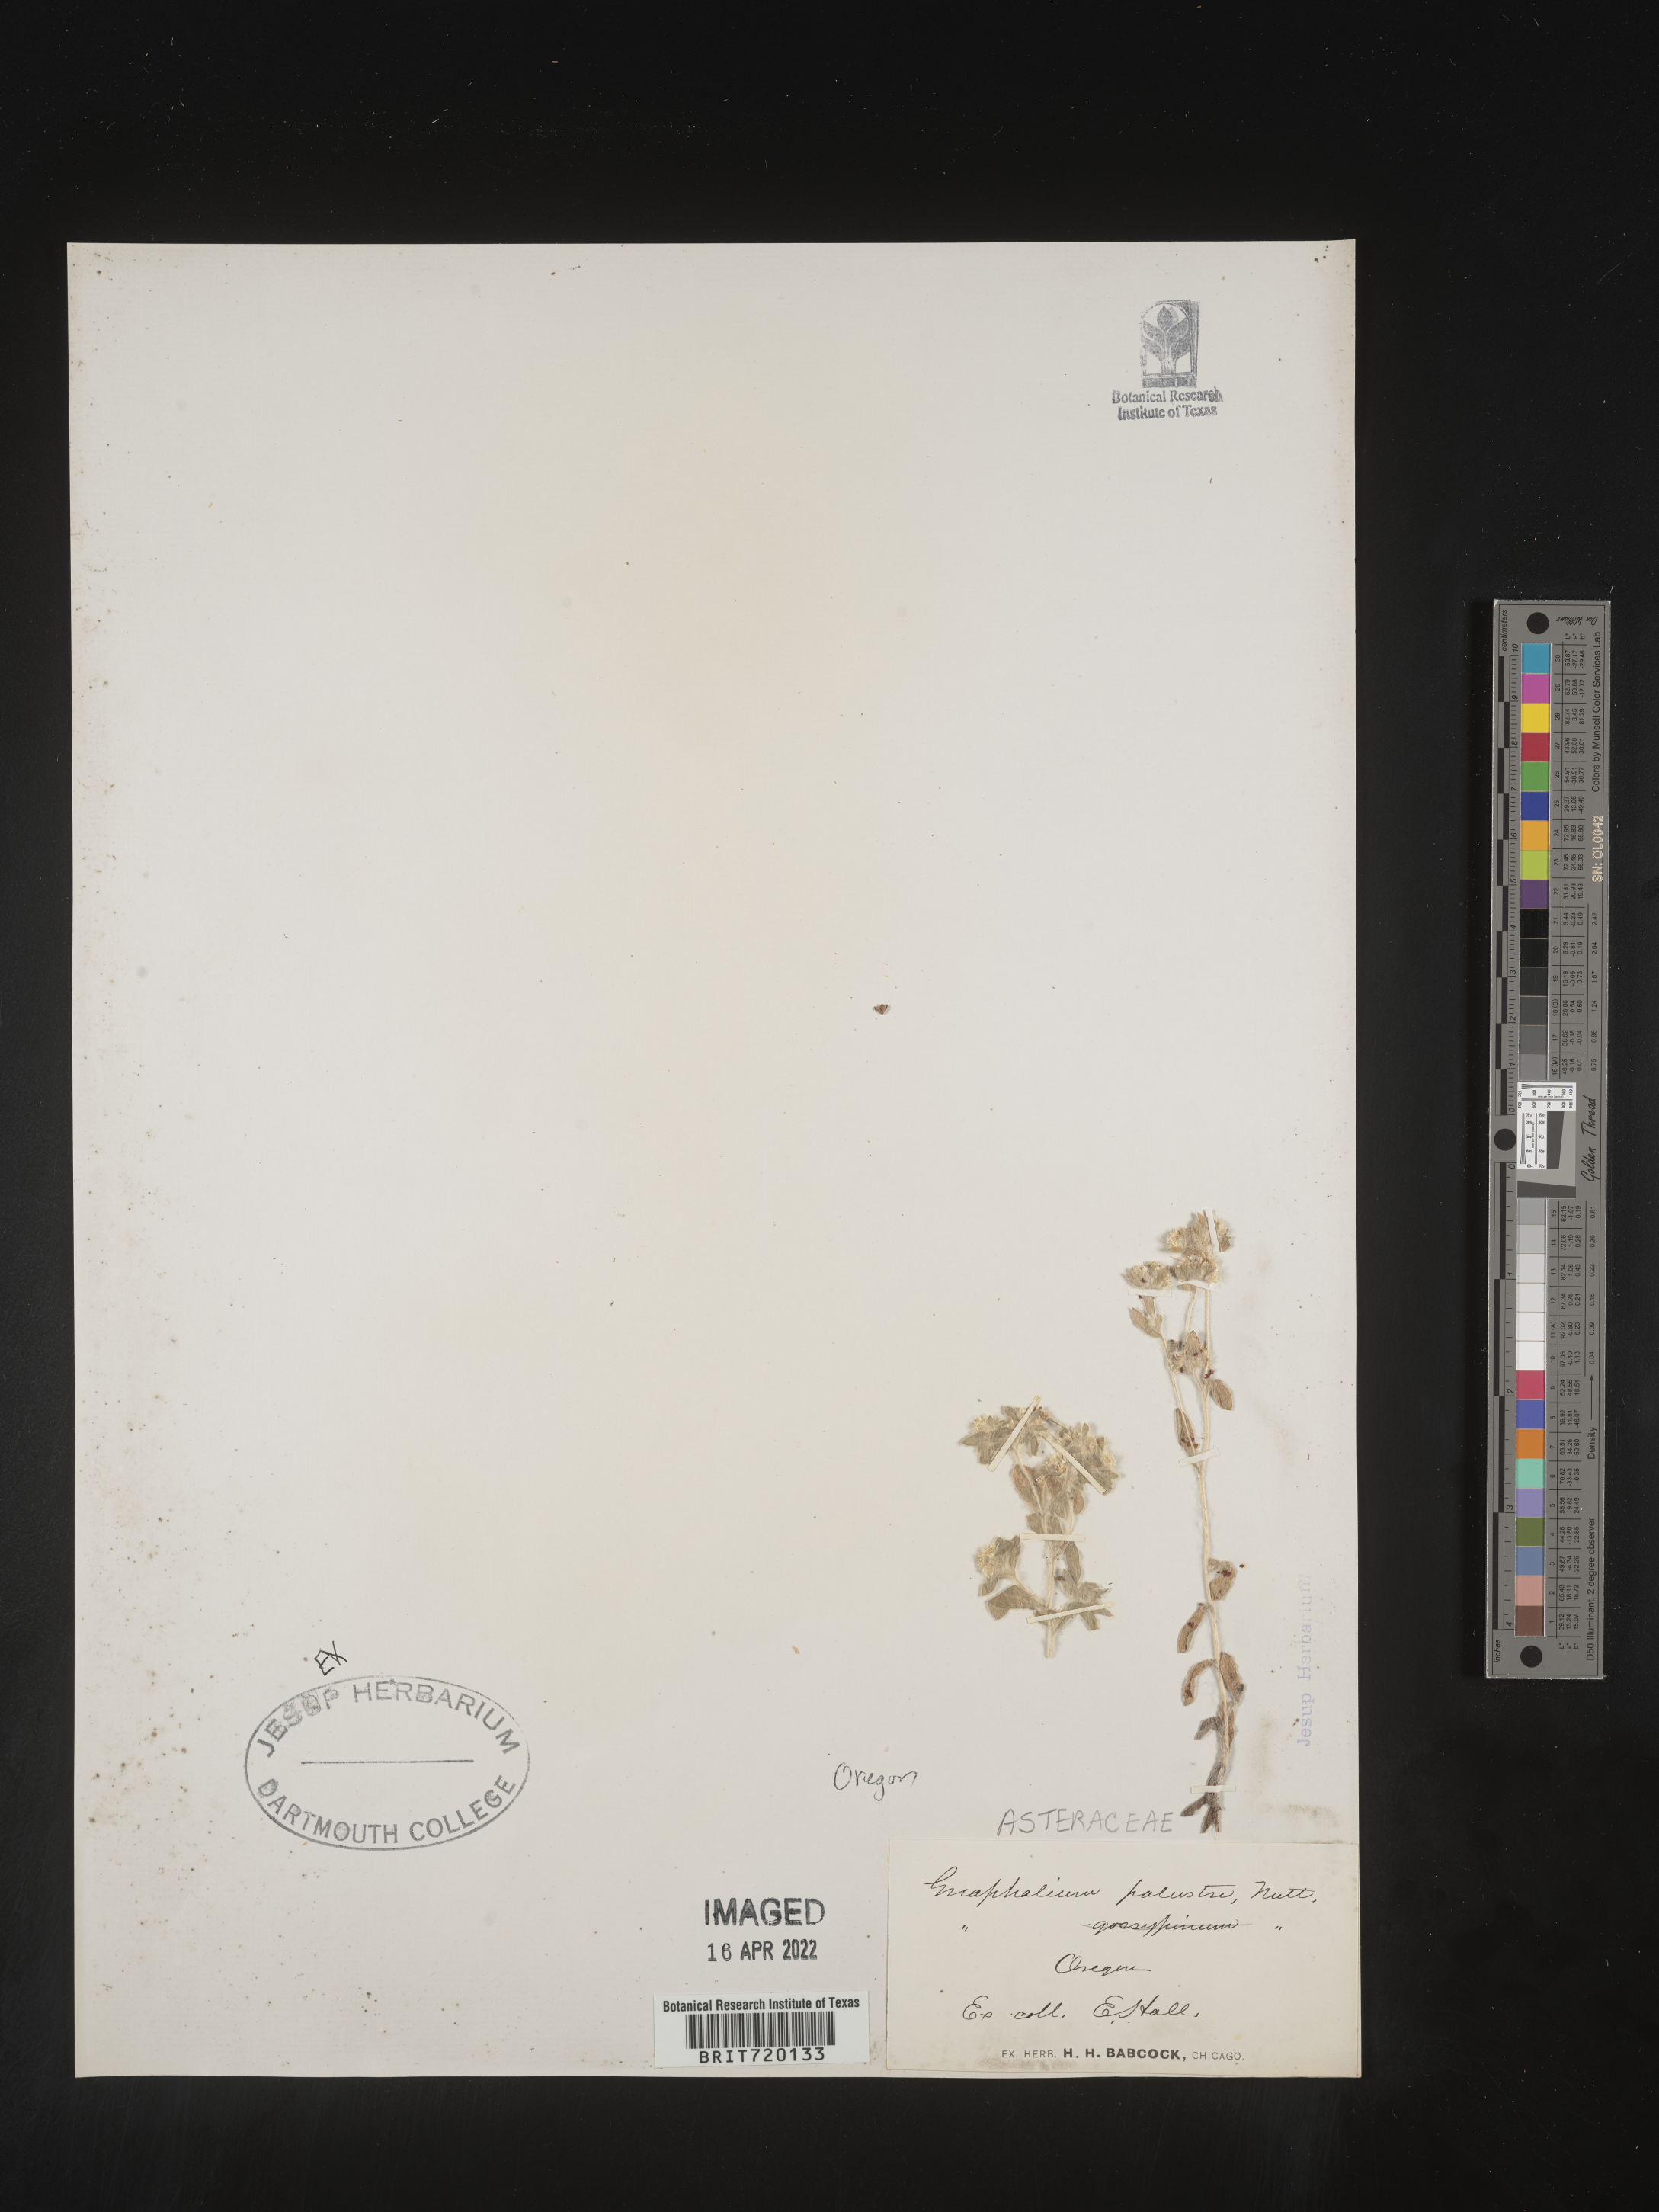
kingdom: Plantae
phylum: Tracheophyta
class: Magnoliopsida
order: Asterales
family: Asteraceae
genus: Gnaphalium
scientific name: Gnaphalium palustre
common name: Western marsh cudweed
